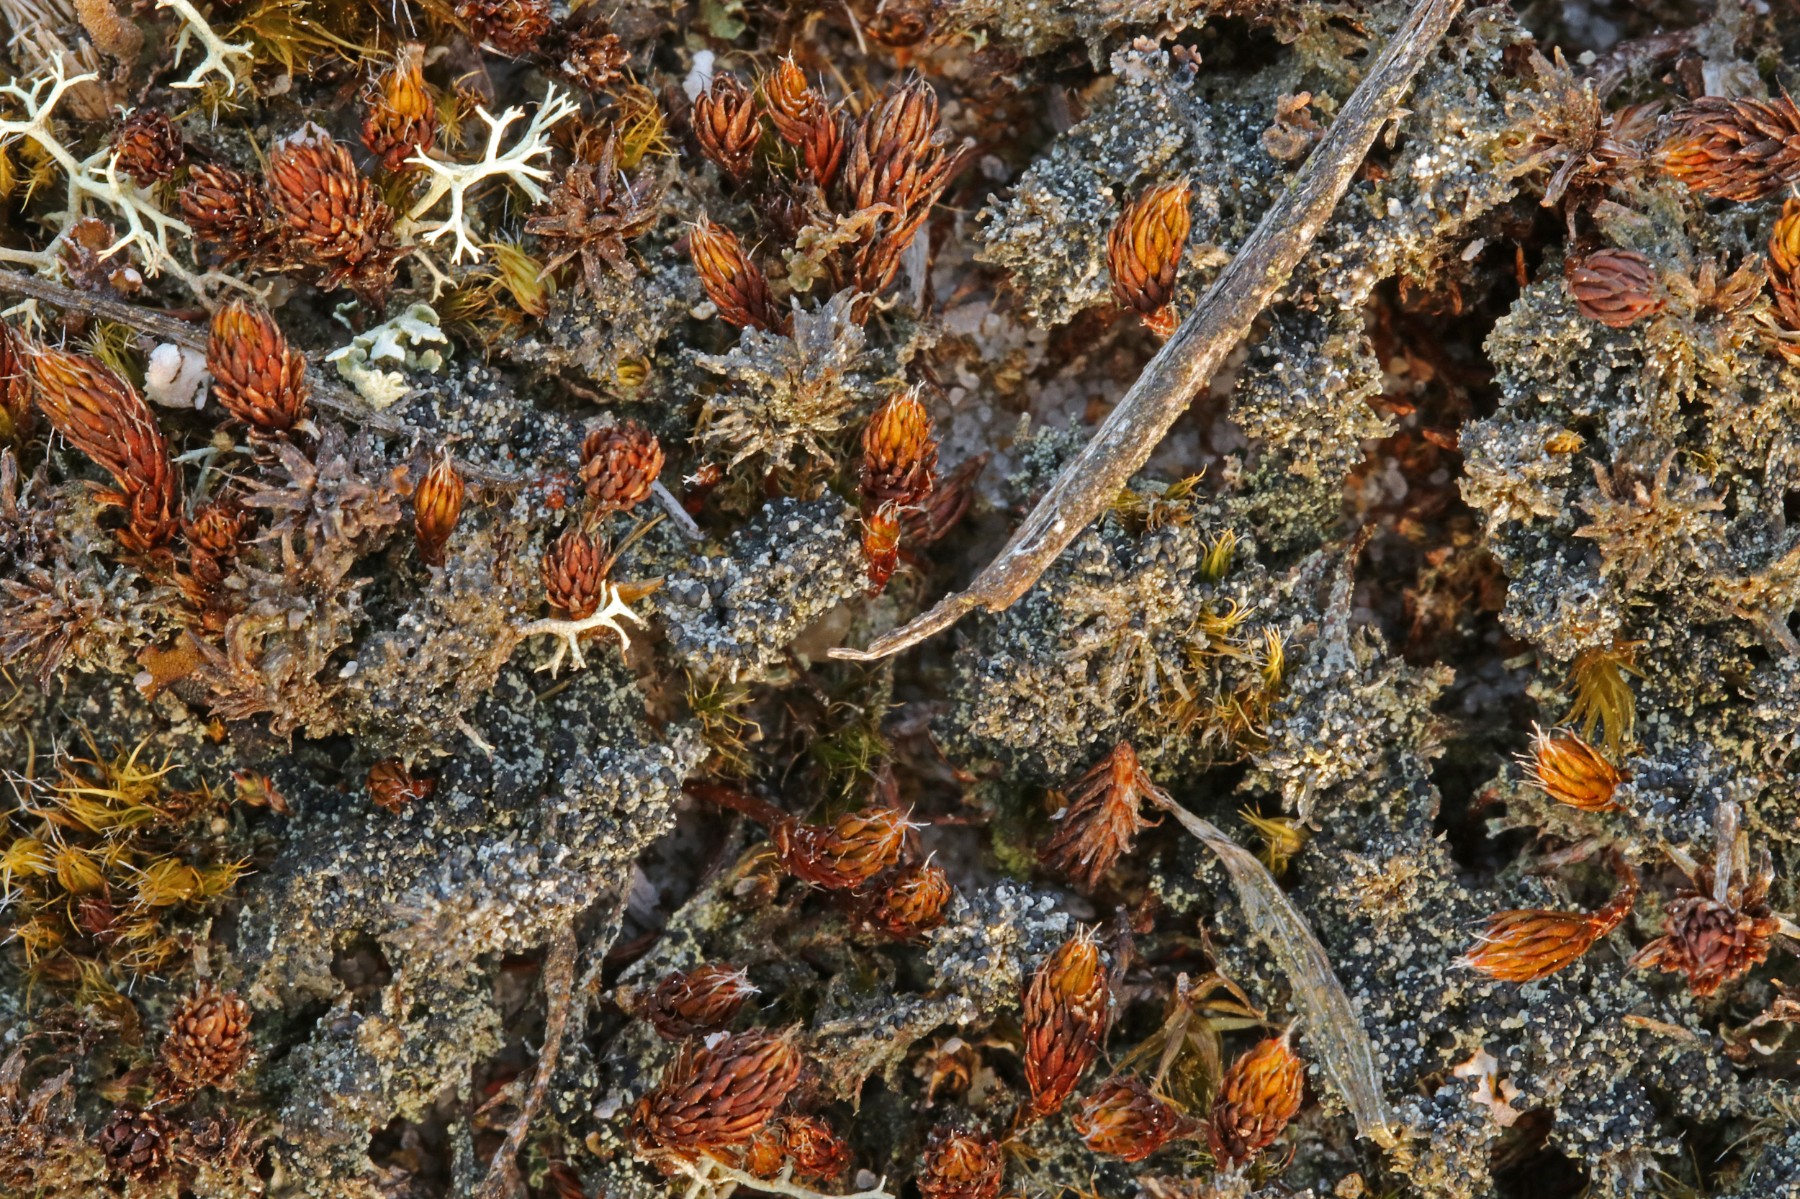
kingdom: Fungi
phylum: Ascomycota
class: Lecanoromycetes
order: Lecanorales
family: Byssolomataceae
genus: Micarea
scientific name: Micarea lignaria
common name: tørve-knaplav
